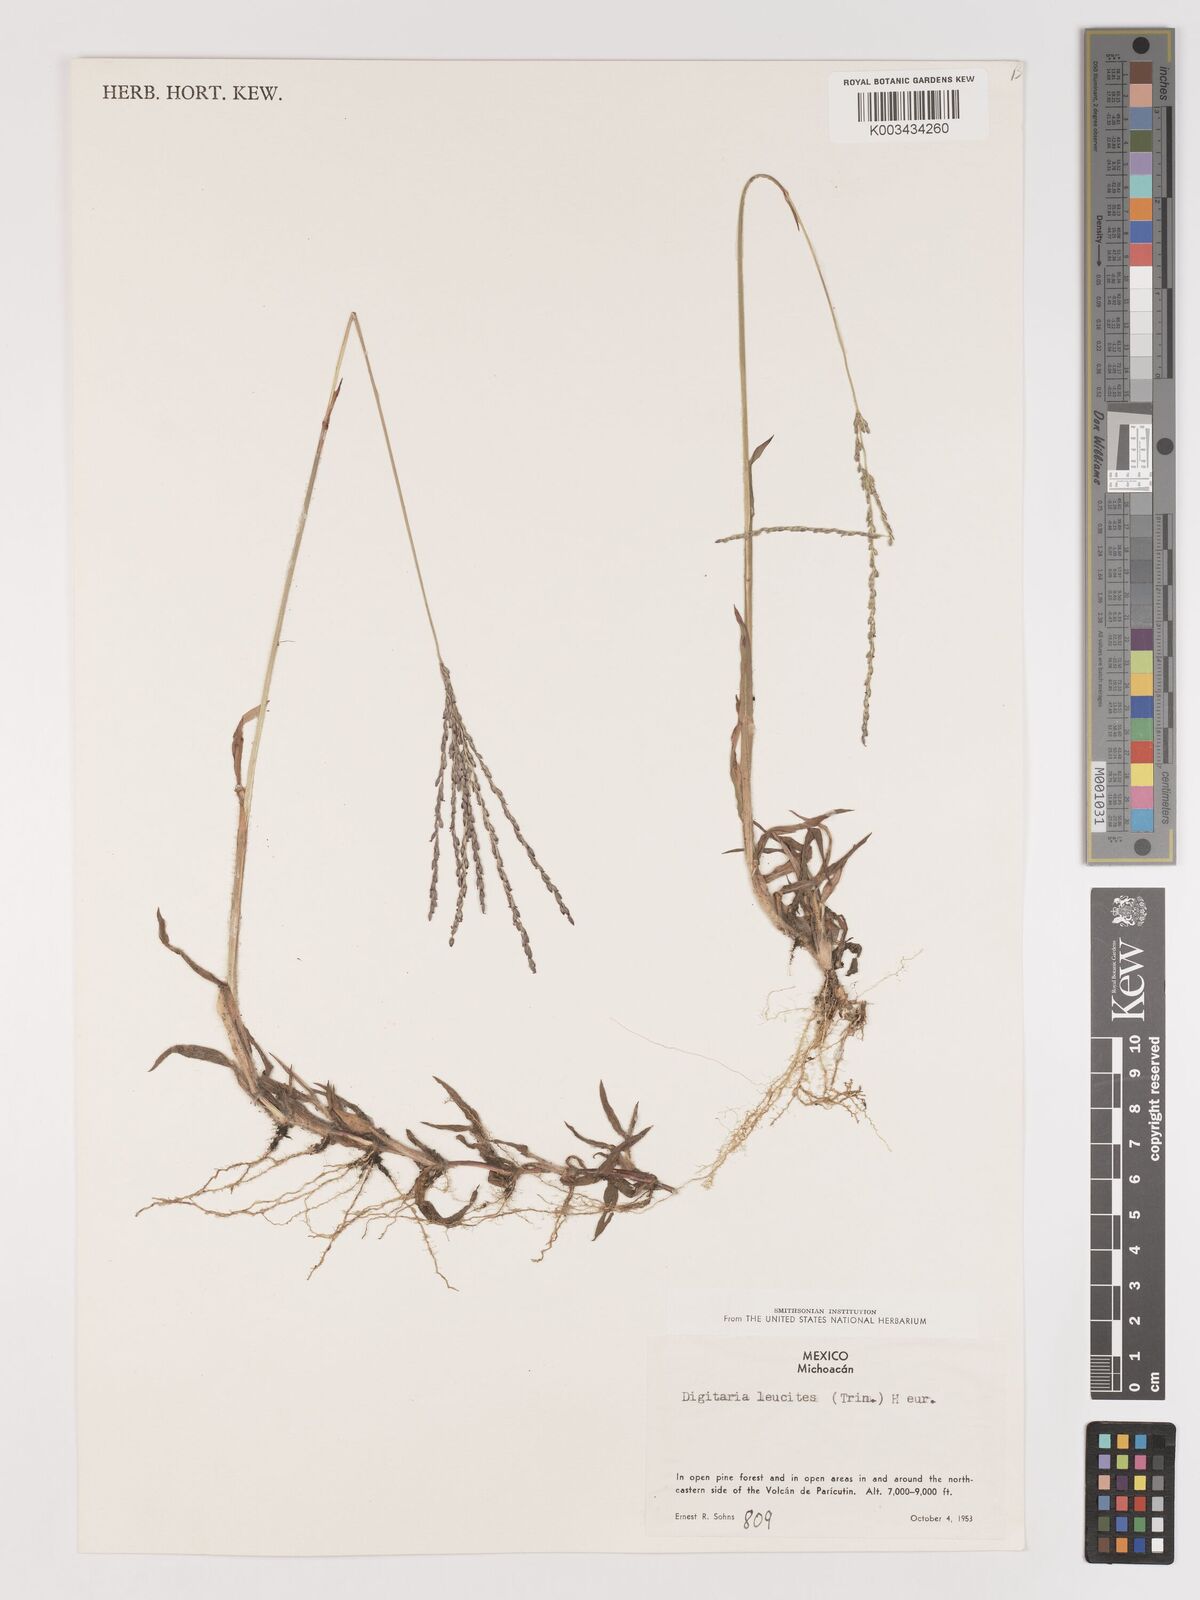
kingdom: Plantae
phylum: Tracheophyta
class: Liliopsida
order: Poales
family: Poaceae
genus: Digitaria
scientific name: Digitaria leucites
